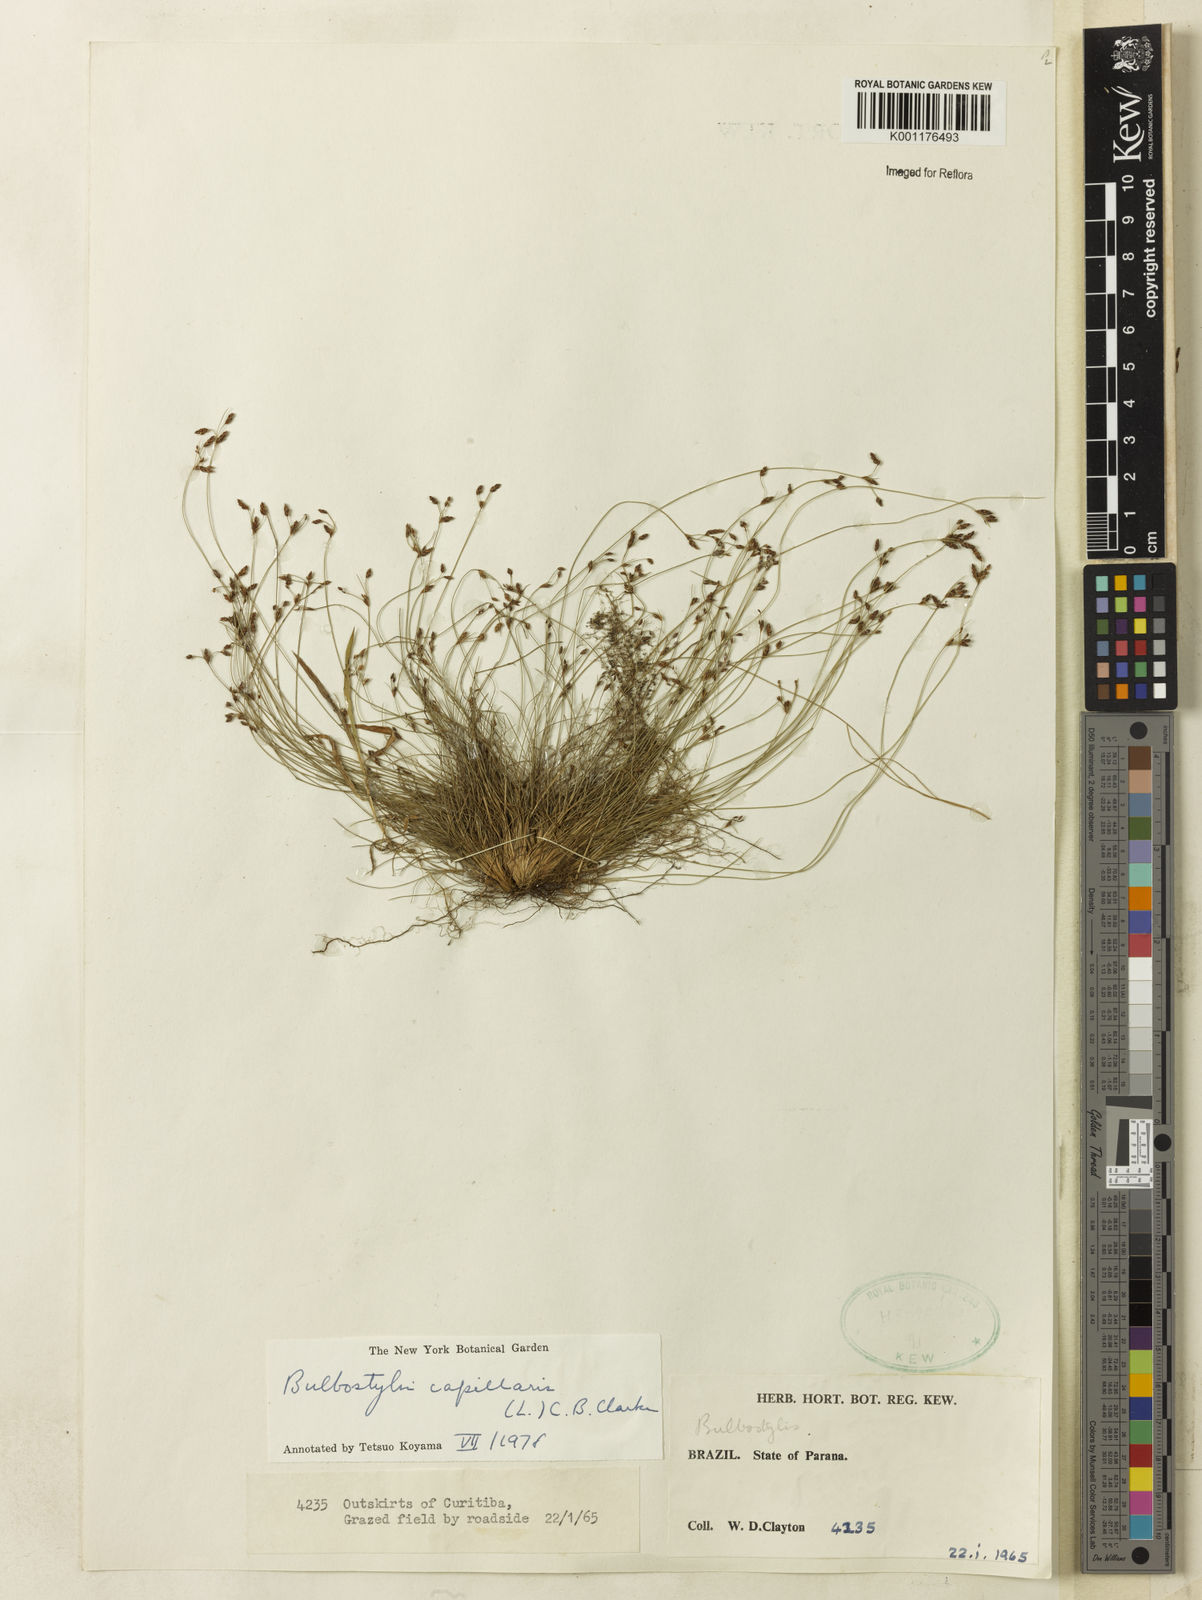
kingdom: Plantae
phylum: Tracheophyta
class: Liliopsida
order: Poales
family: Cyperaceae
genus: Bulbostylis
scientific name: Bulbostylis capillaris
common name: Densetuft hairsedge
